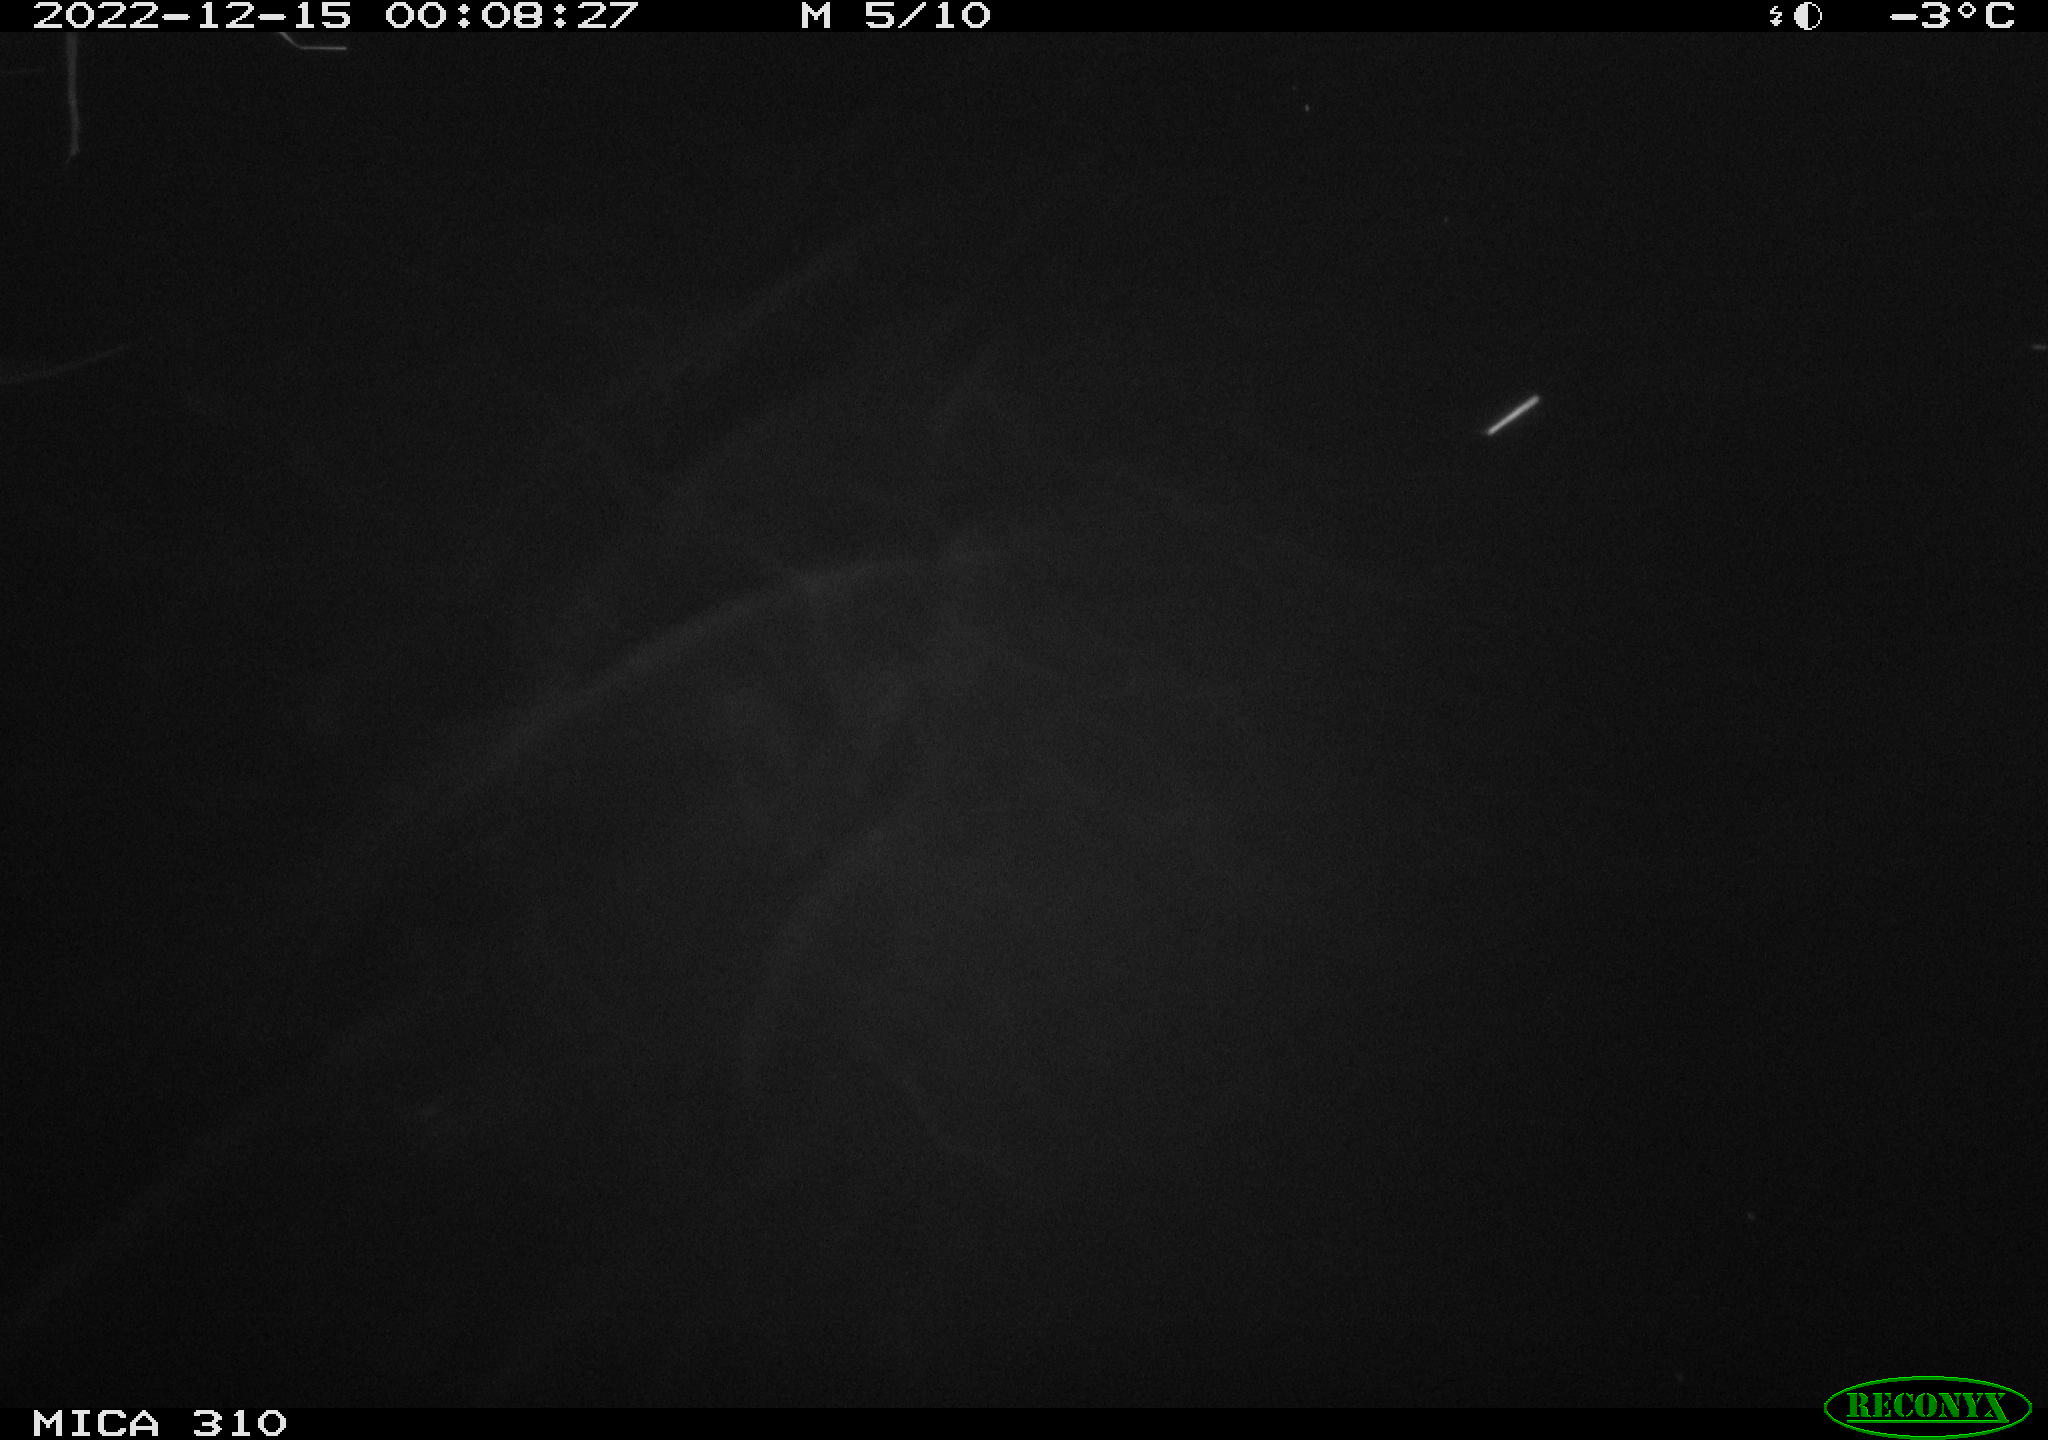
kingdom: Animalia
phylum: Chordata
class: Aves
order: Anseriformes
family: Anatidae
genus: Anas
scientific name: Anas
